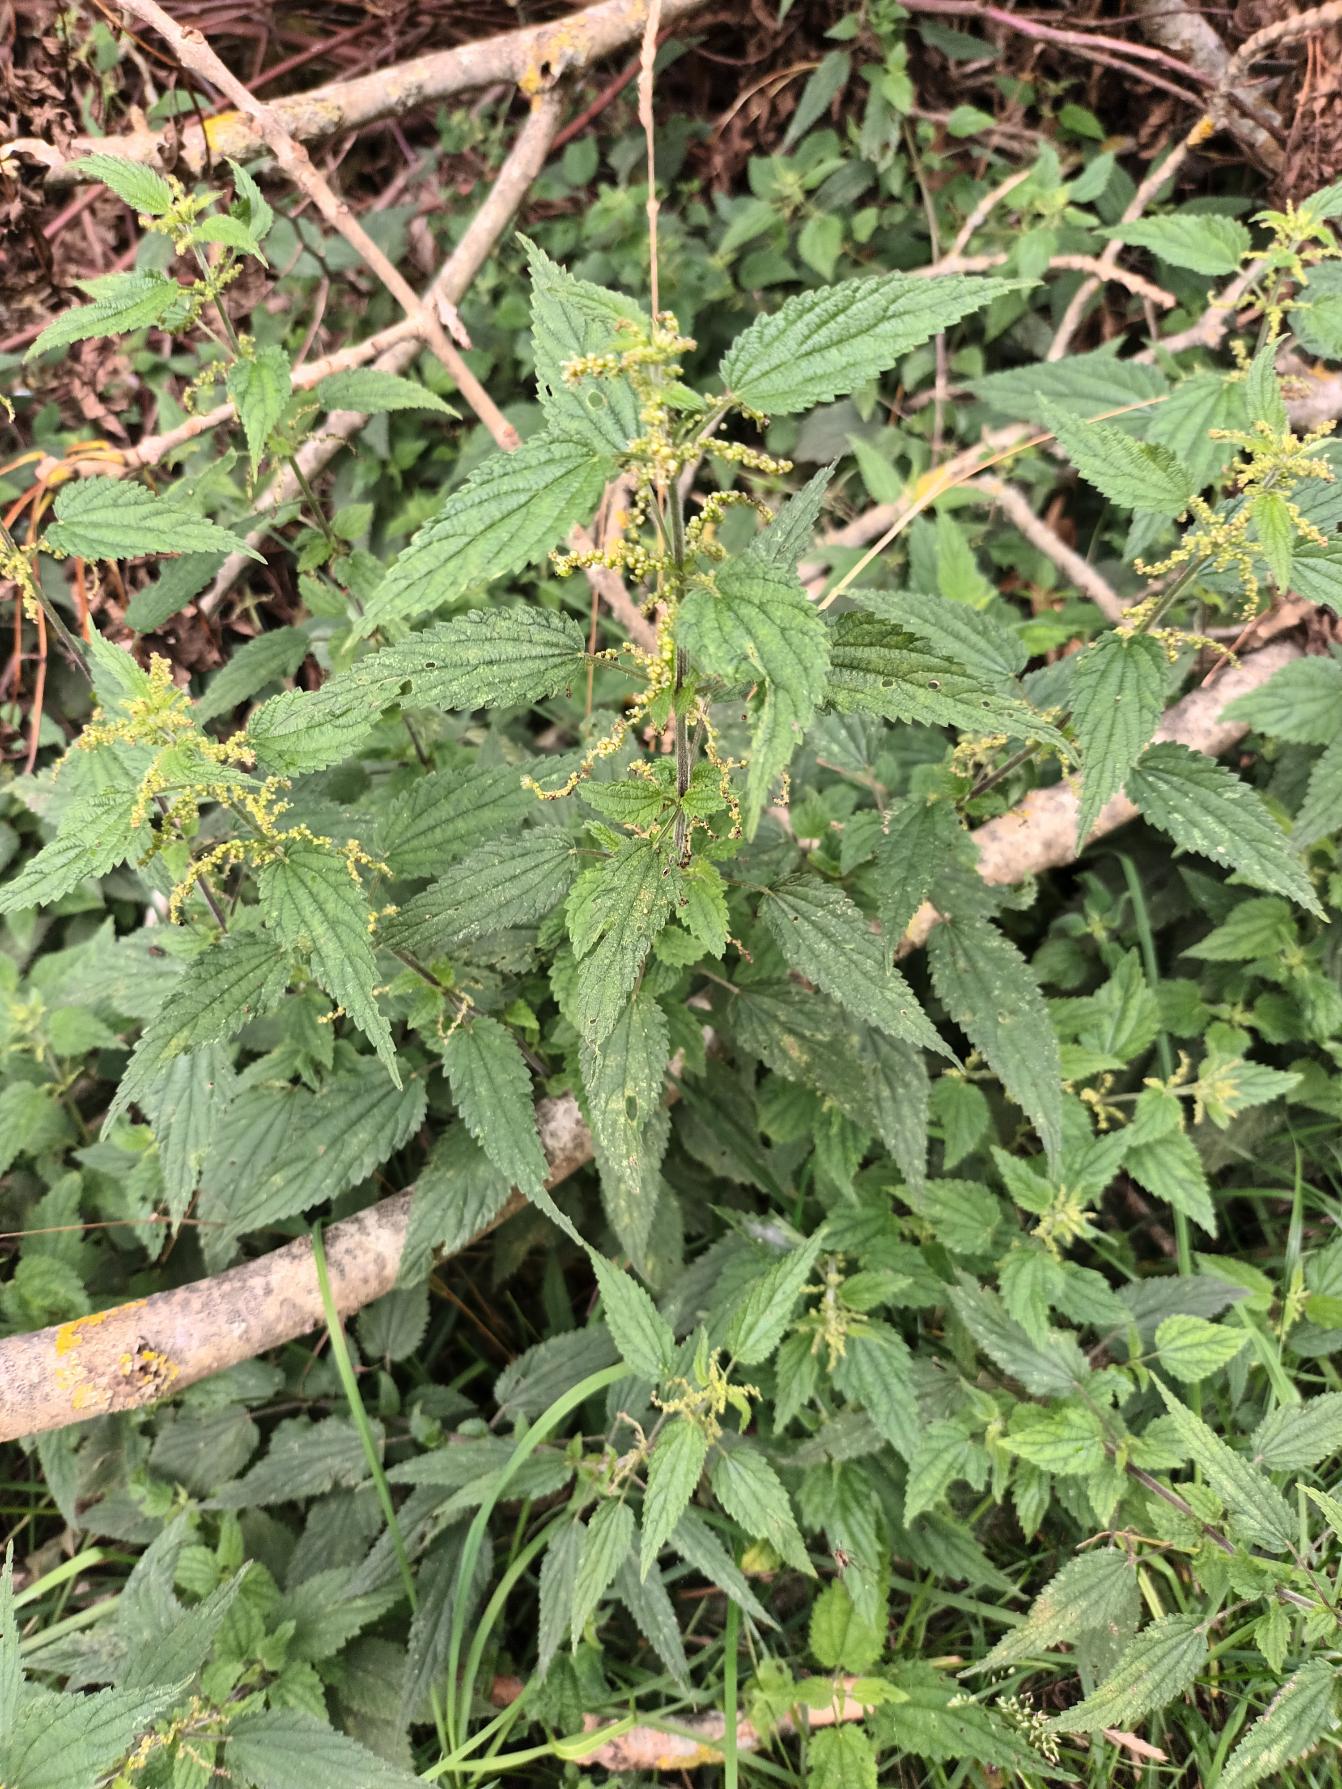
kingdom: Plantae
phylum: Tracheophyta
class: Magnoliopsida
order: Rosales
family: Urticaceae
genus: Urtica
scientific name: Urtica dioica
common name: Stor nælde
